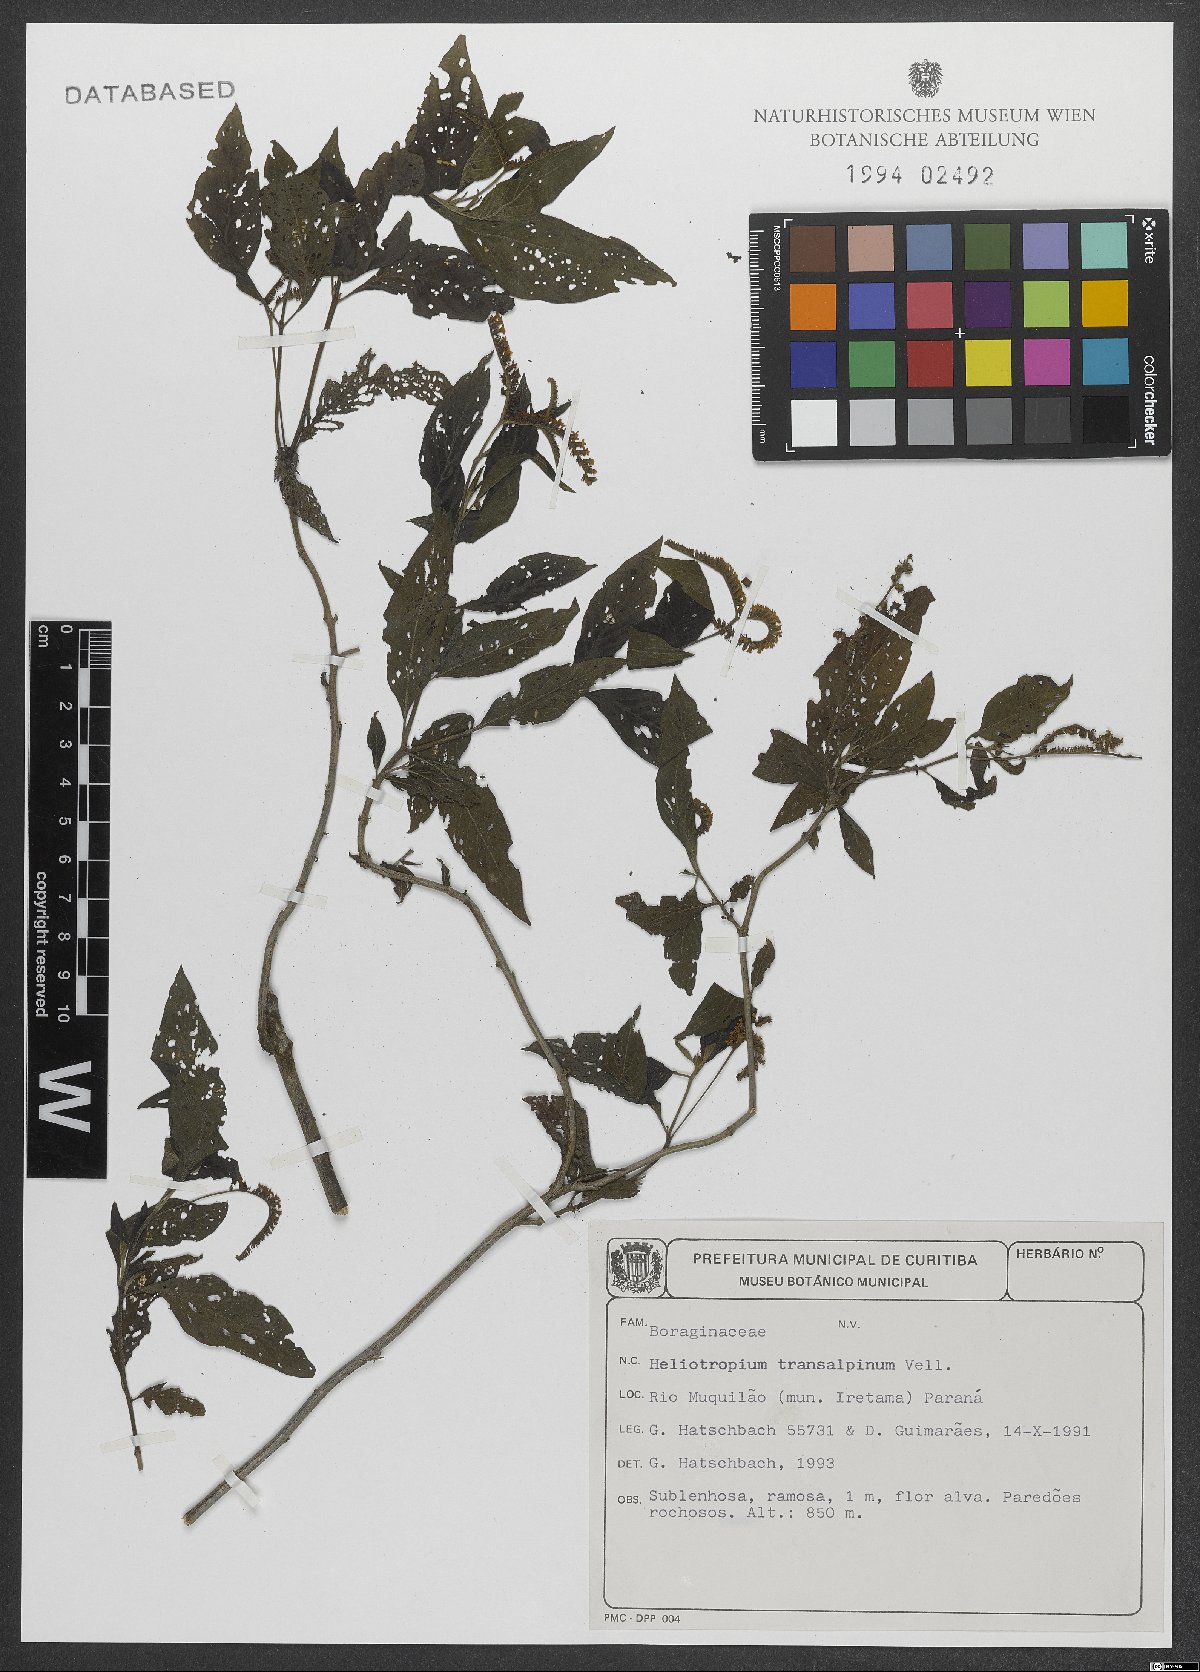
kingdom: Plantae
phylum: Tracheophyta
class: Magnoliopsida
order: Boraginales
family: Heliotropiaceae
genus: Heliotropium
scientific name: Heliotropium transalpinum
